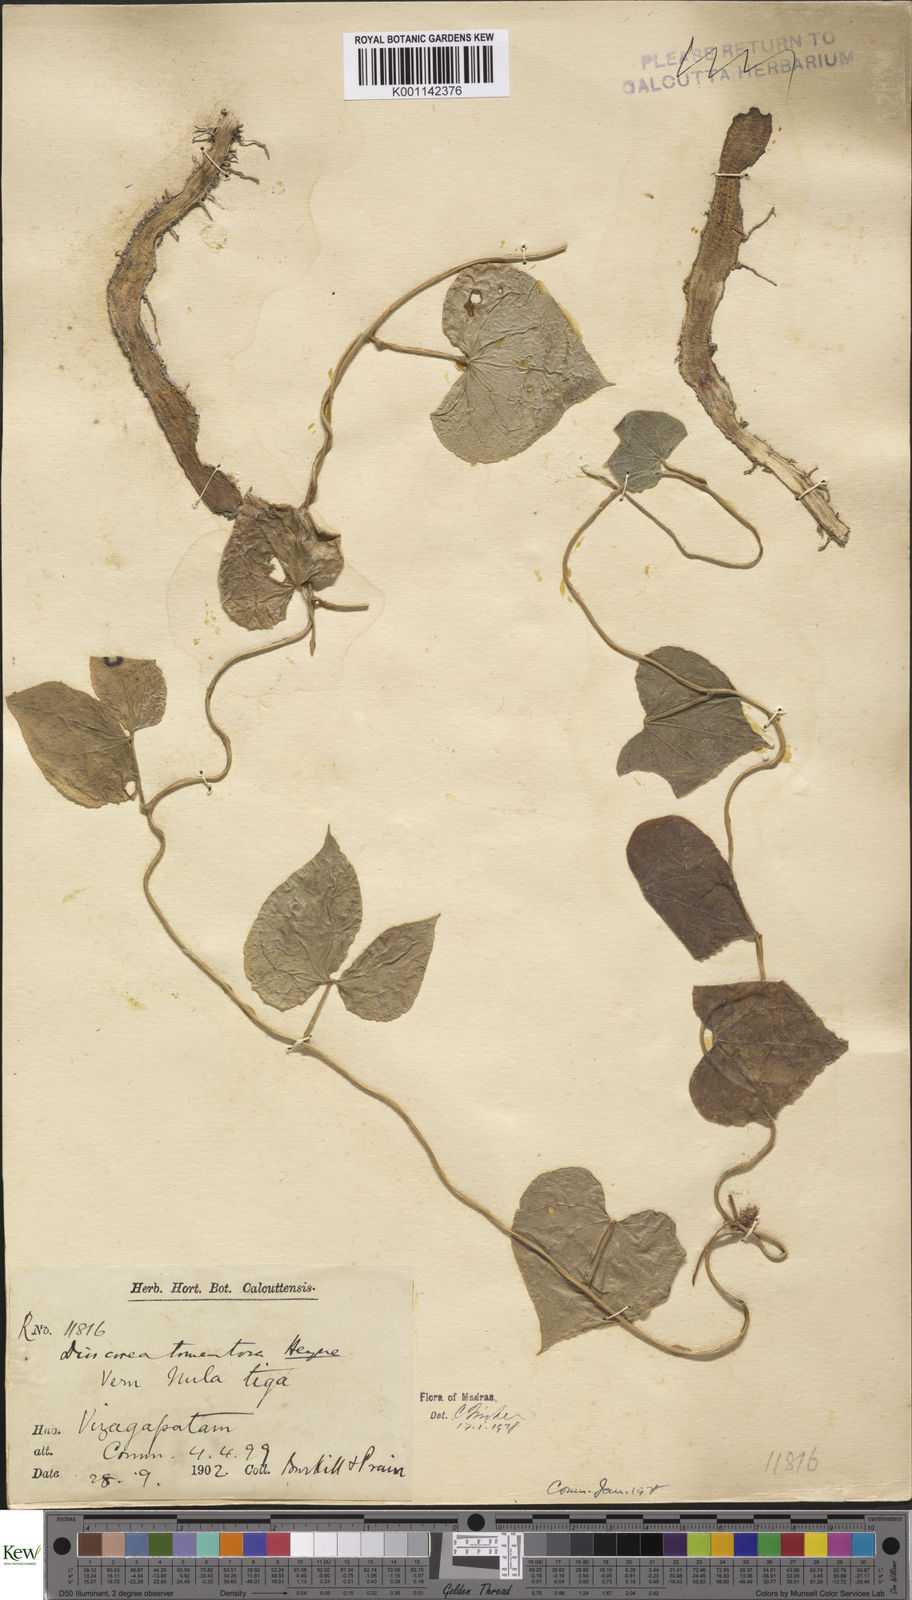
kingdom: Plantae
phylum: Tracheophyta
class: Liliopsida
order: Dioscoreales
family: Dioscoreaceae
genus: Dioscorea
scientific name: Dioscorea
